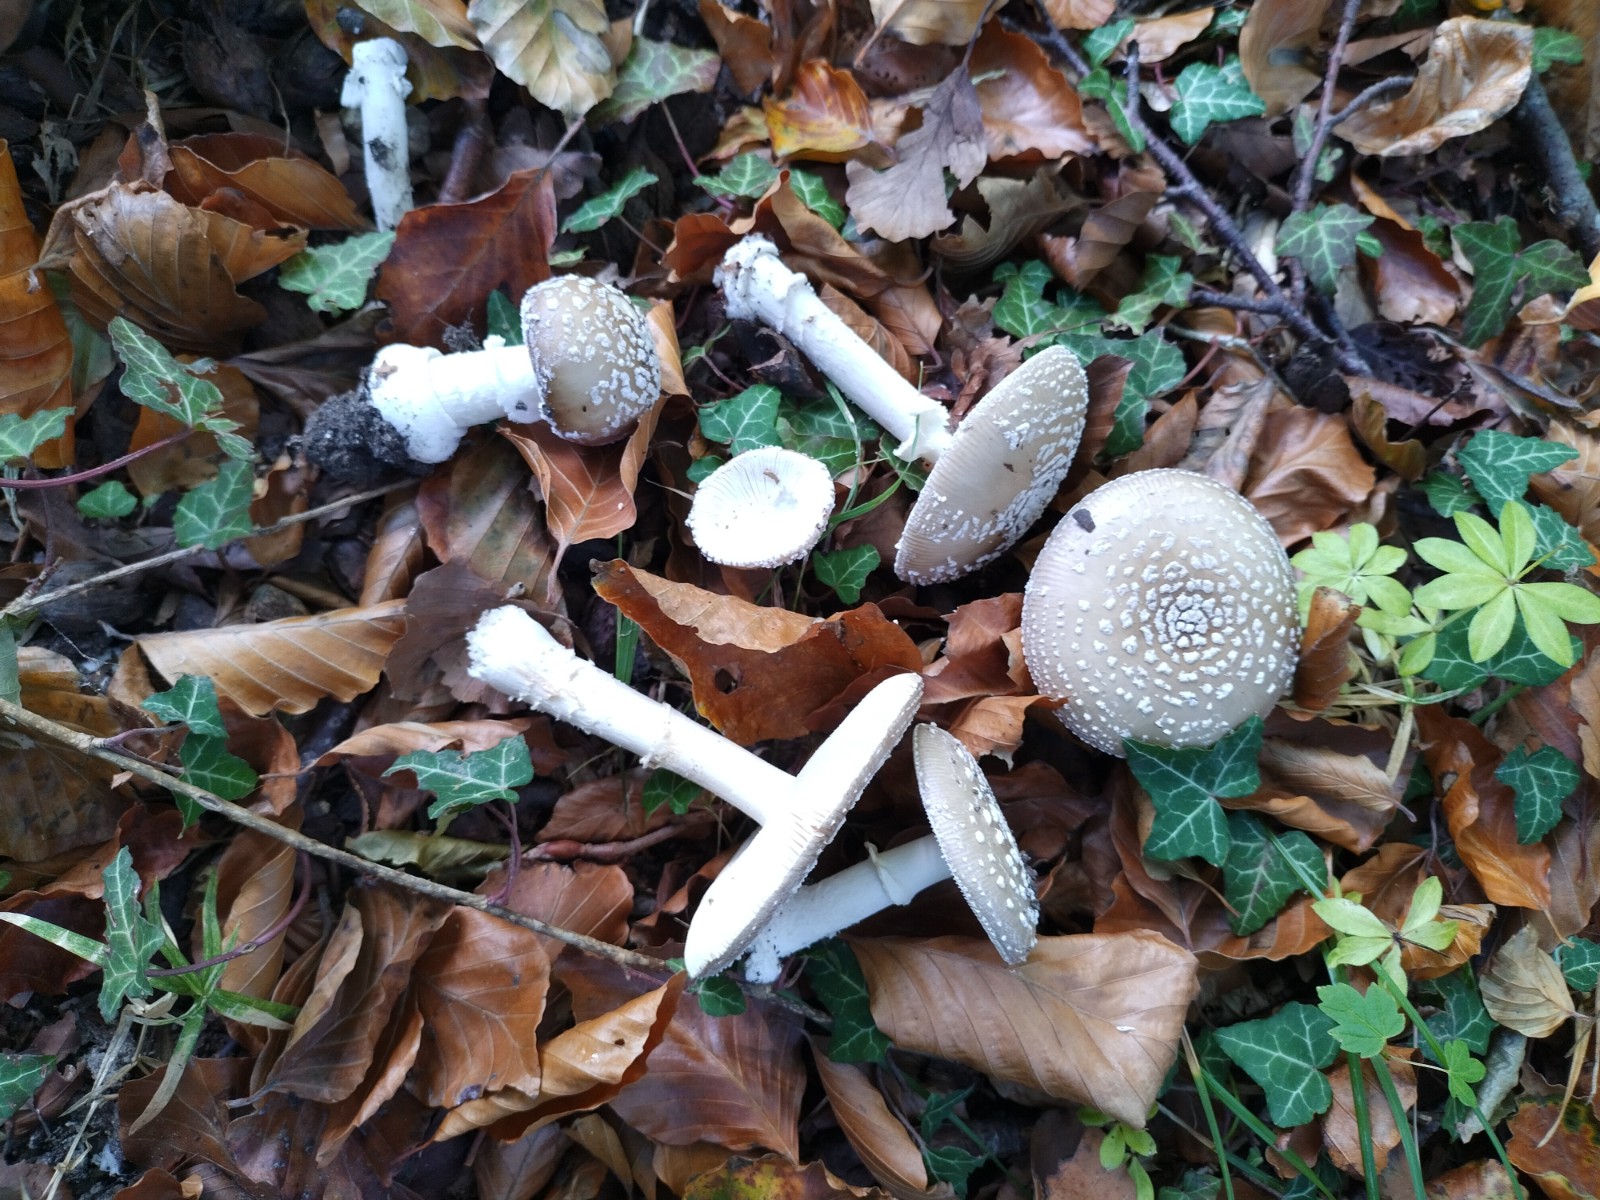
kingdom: Fungi
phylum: Basidiomycota
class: Agaricomycetes
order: Agaricales
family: Amanitaceae
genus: Amanita
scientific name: Amanita pantherina
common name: panter-fluesvamp
